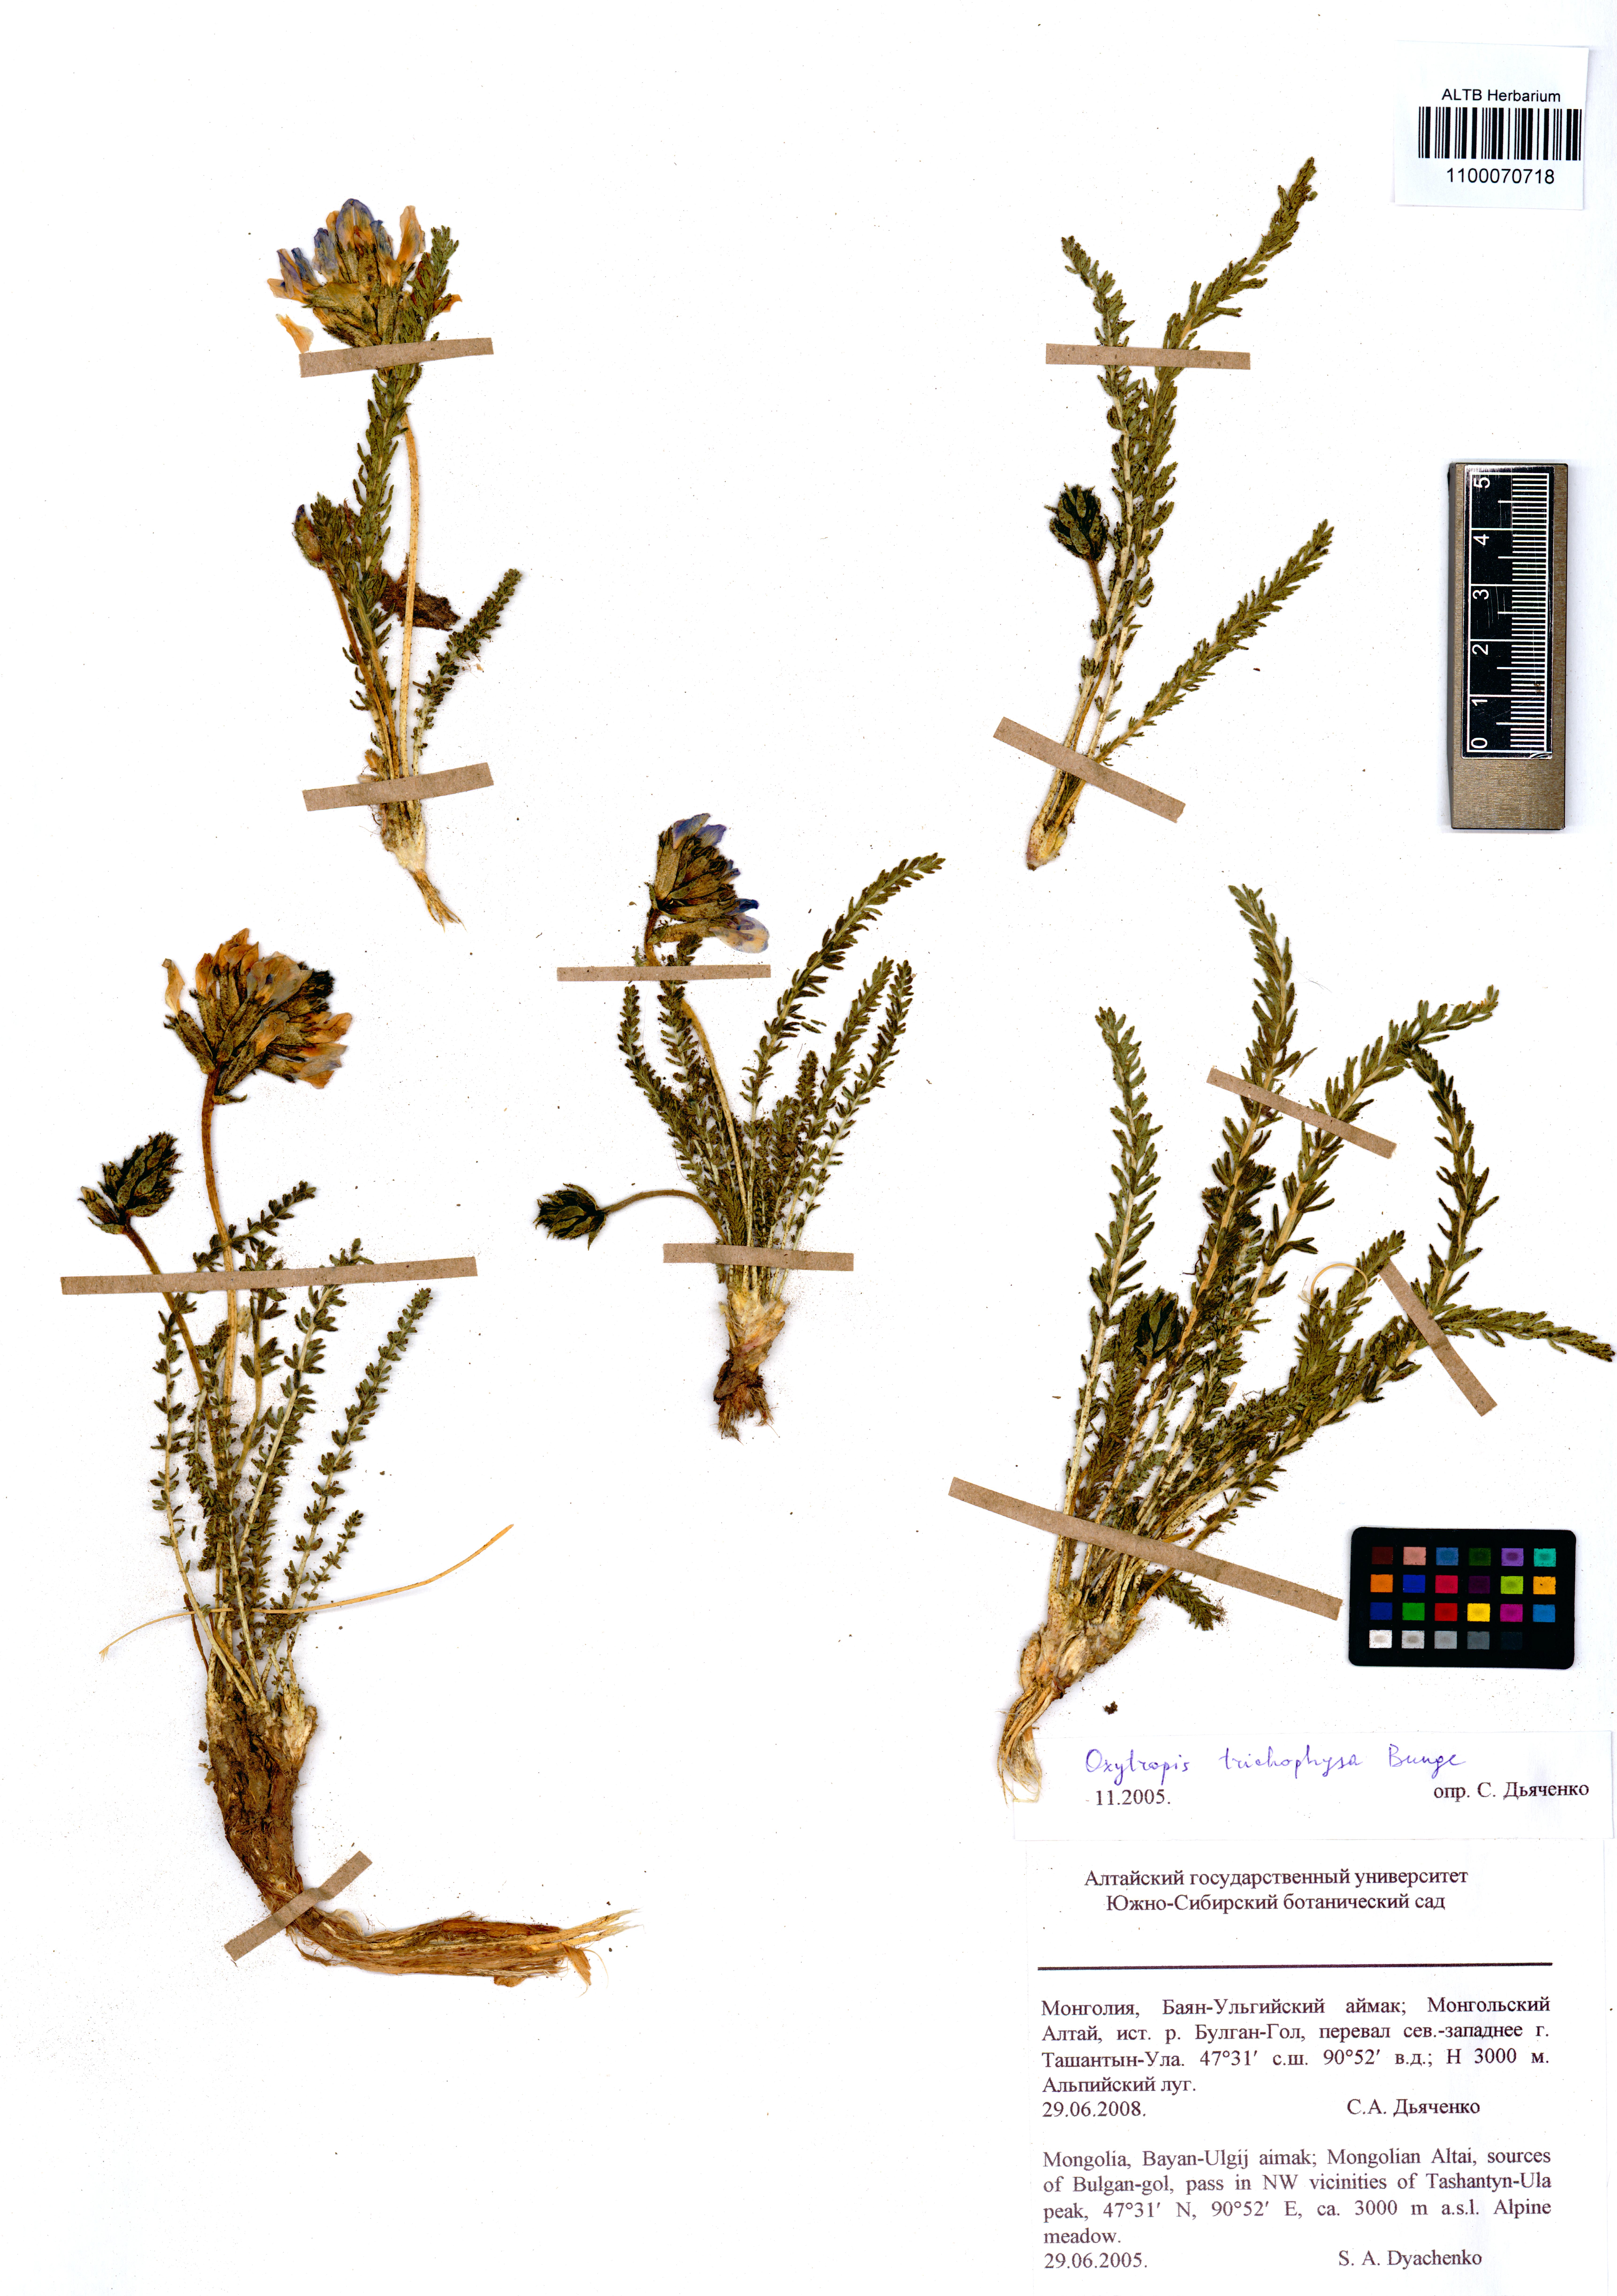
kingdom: Plantae
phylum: Tracheophyta
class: Magnoliopsida
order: Fabales
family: Fabaceae
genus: Oxytropis
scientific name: Oxytropis trichophysa
